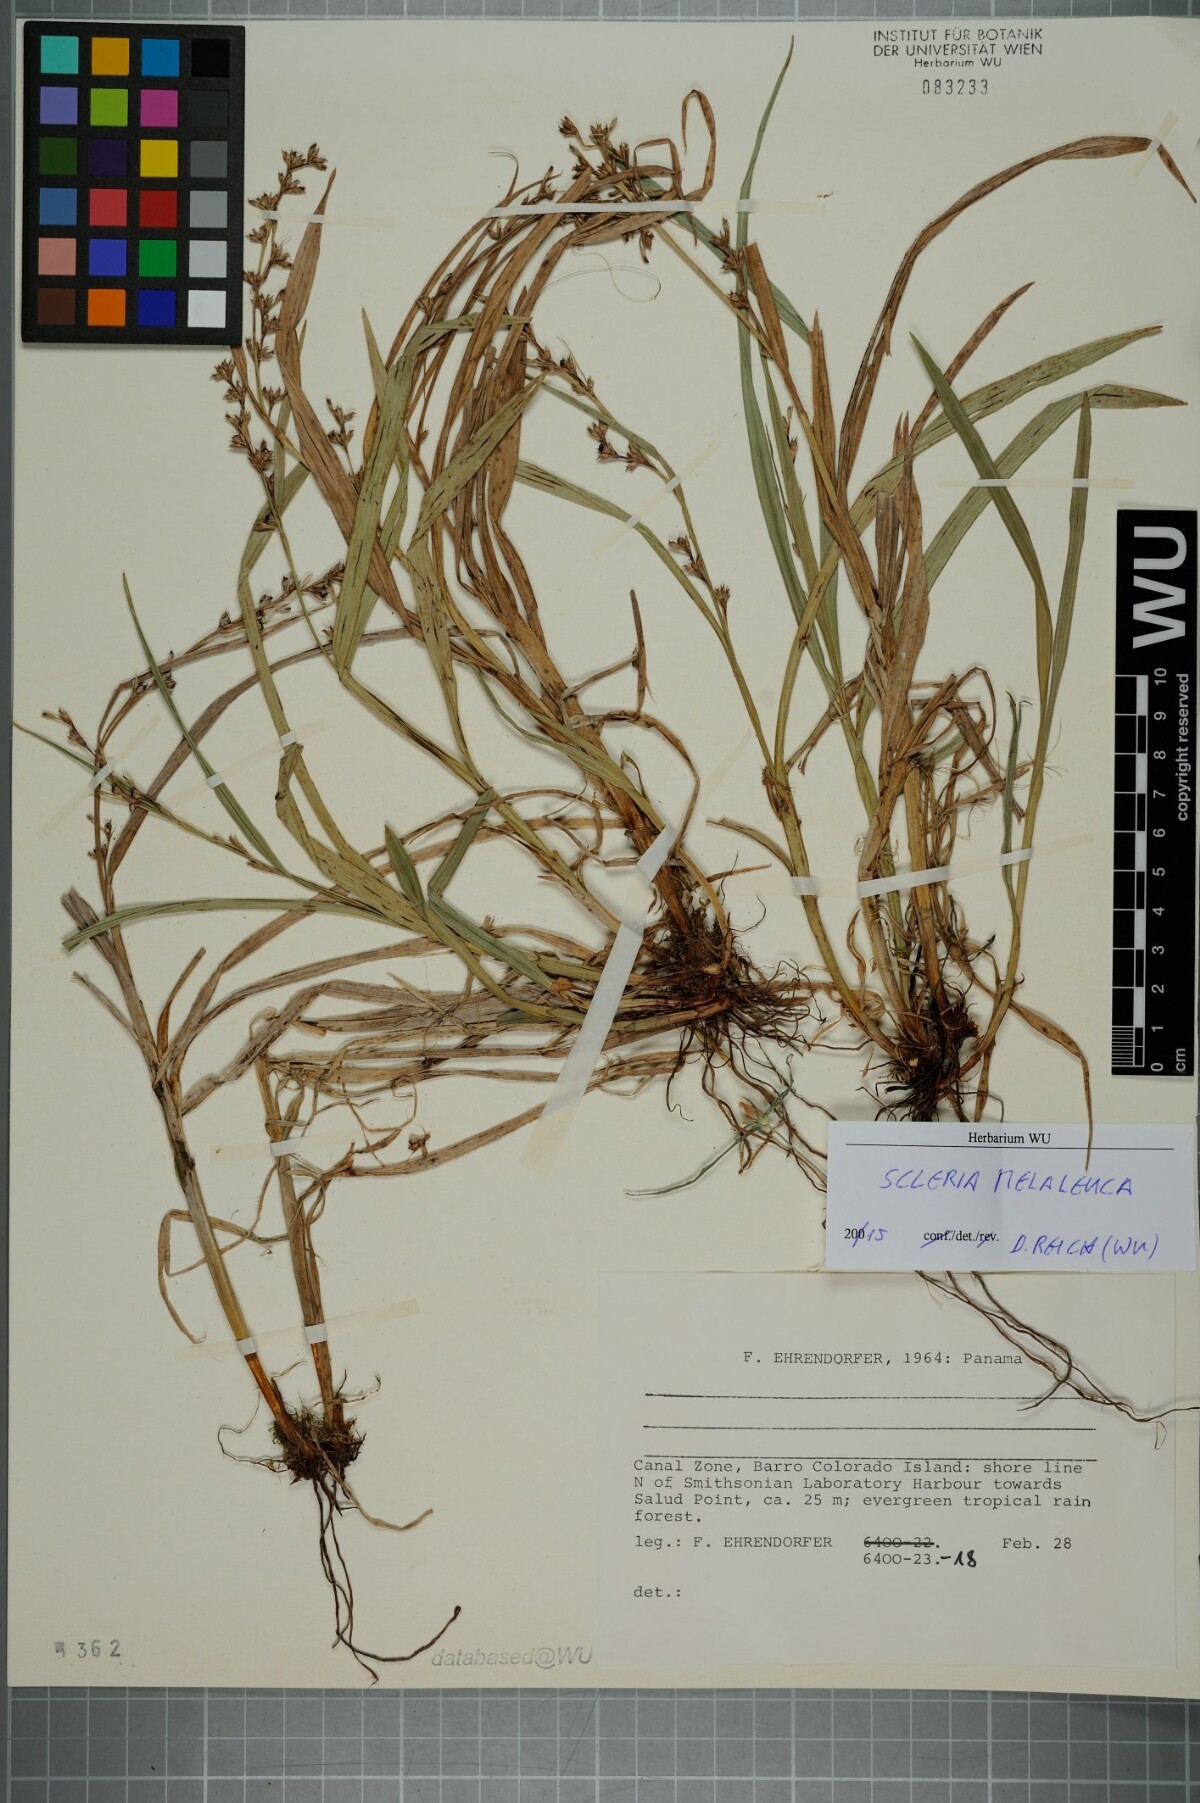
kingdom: Plantae
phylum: Tracheophyta
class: Liliopsida
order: Poales
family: Cyperaceae
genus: Scleria
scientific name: Scleria gaertneri
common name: Cortadera blanca
